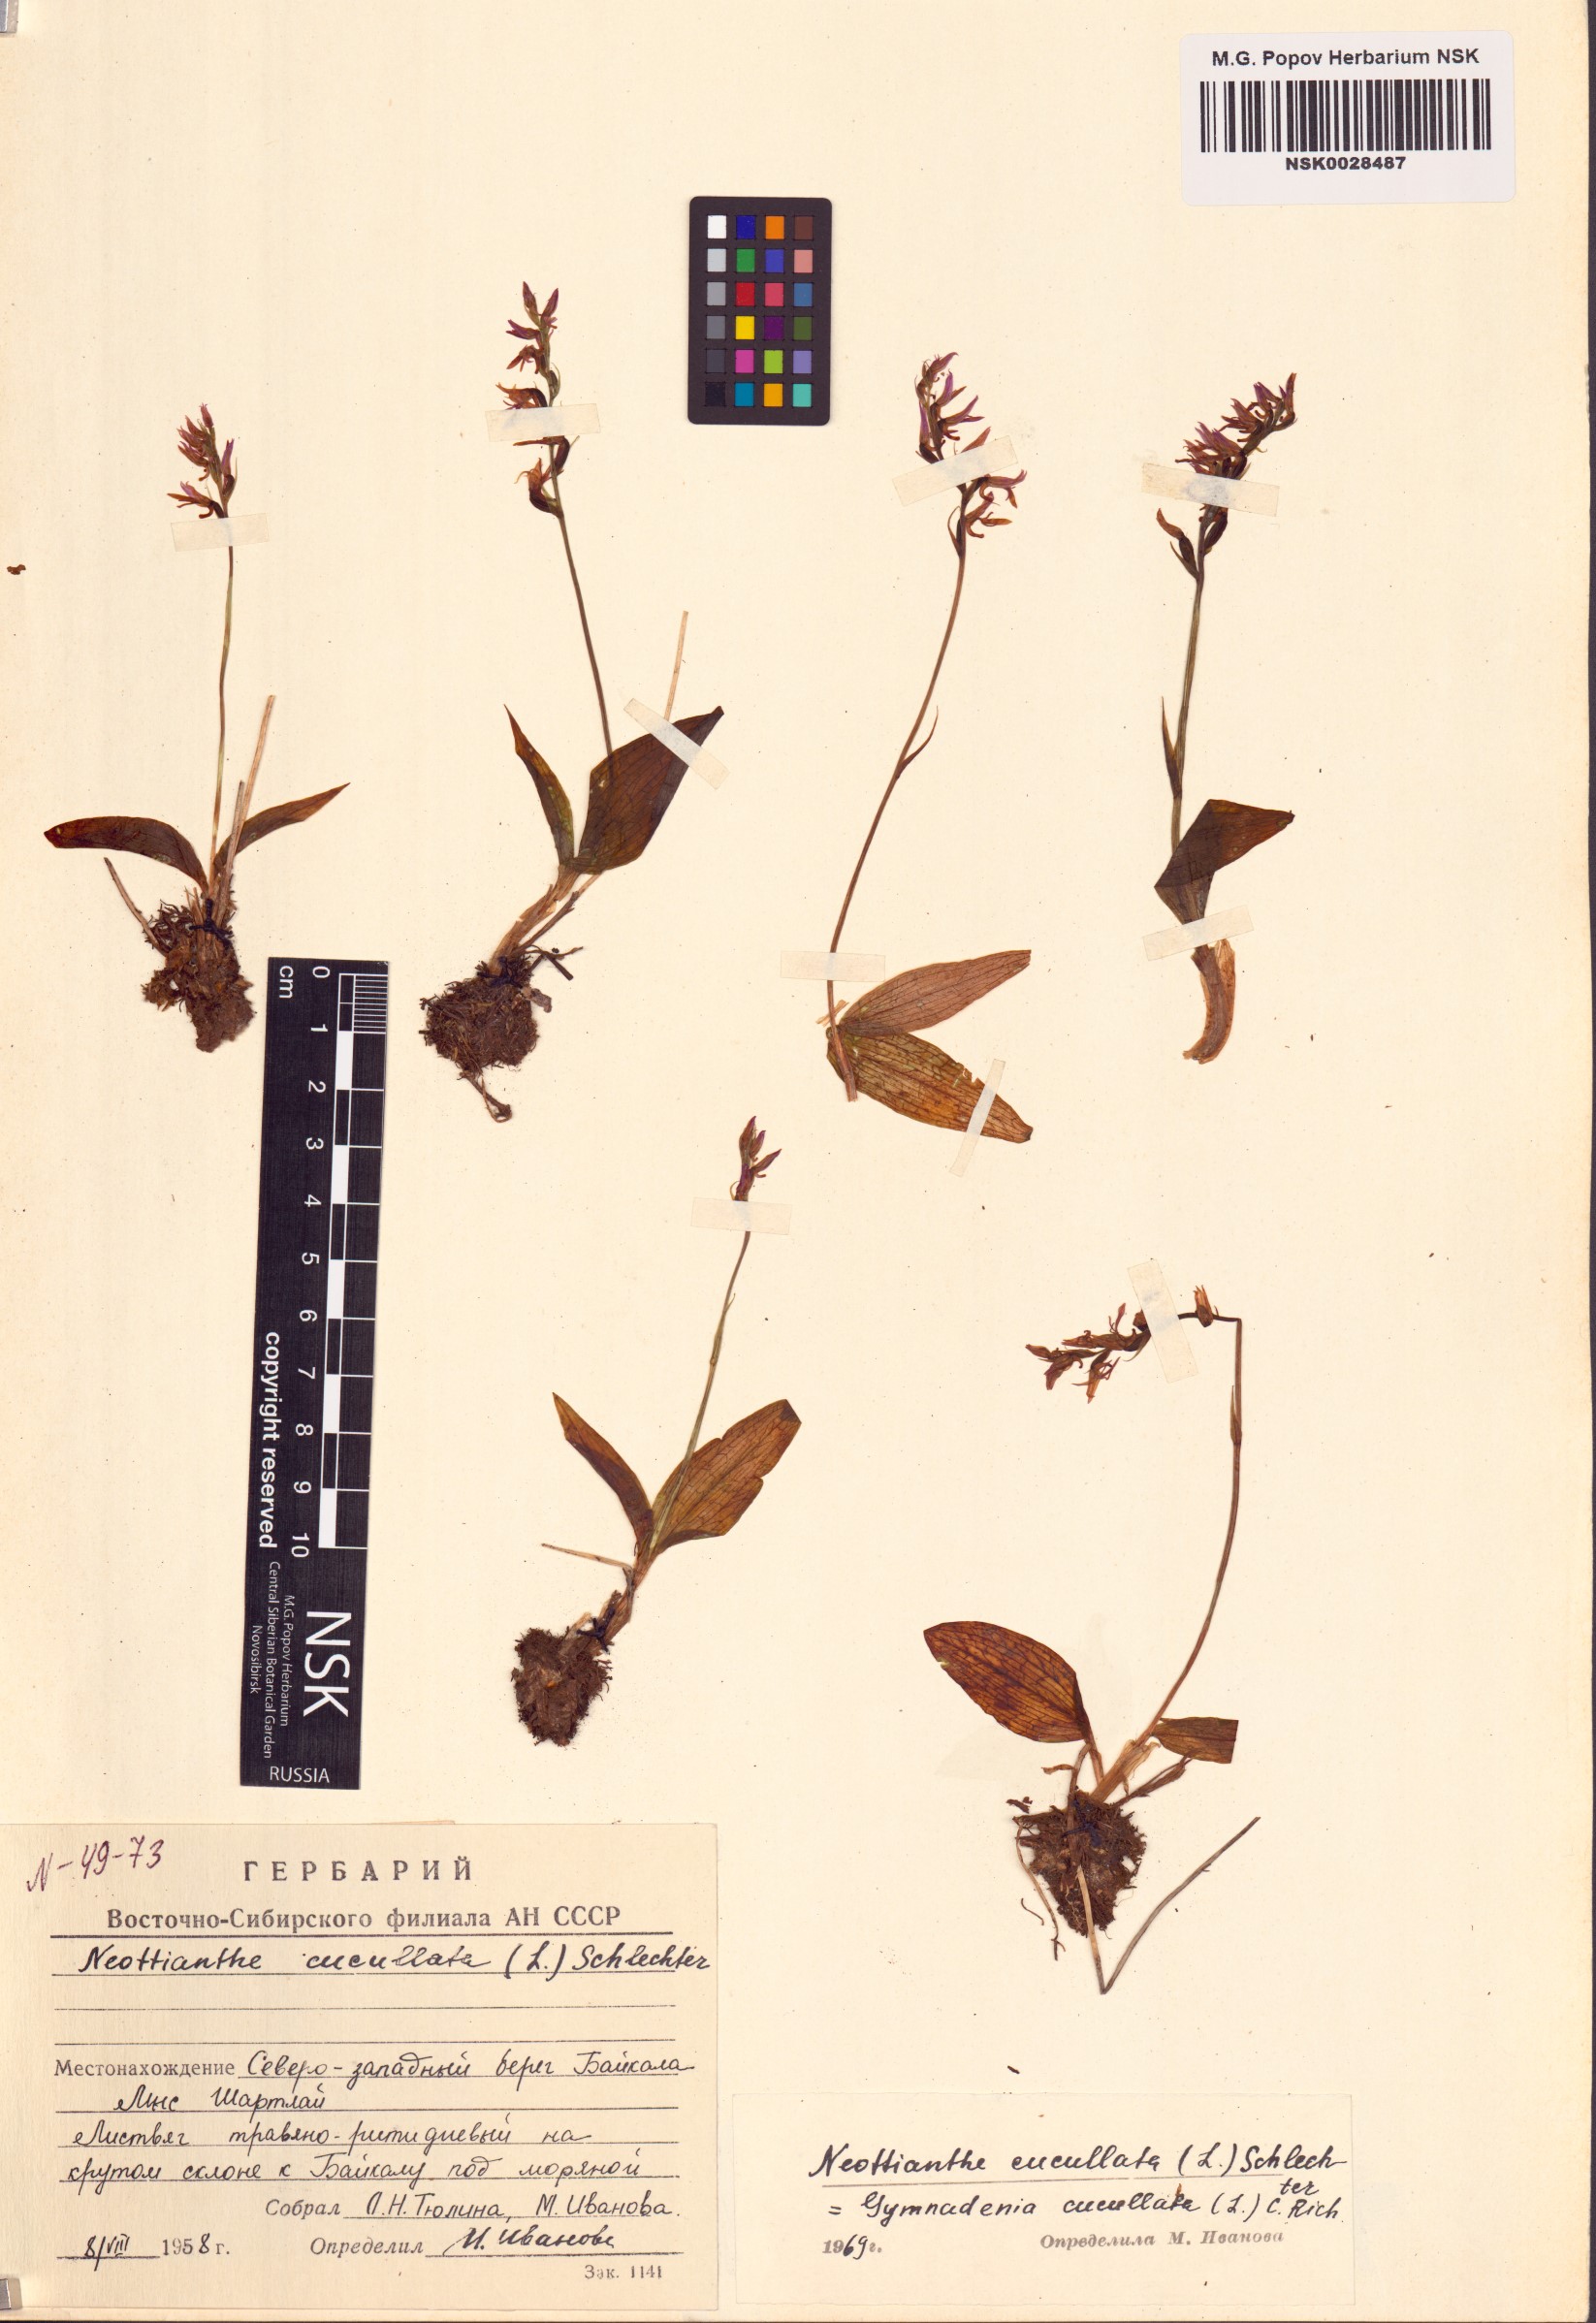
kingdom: Plantae
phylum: Tracheophyta
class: Liliopsida
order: Asparagales
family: Orchidaceae
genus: Hemipilia
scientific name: Hemipilia cucullata
